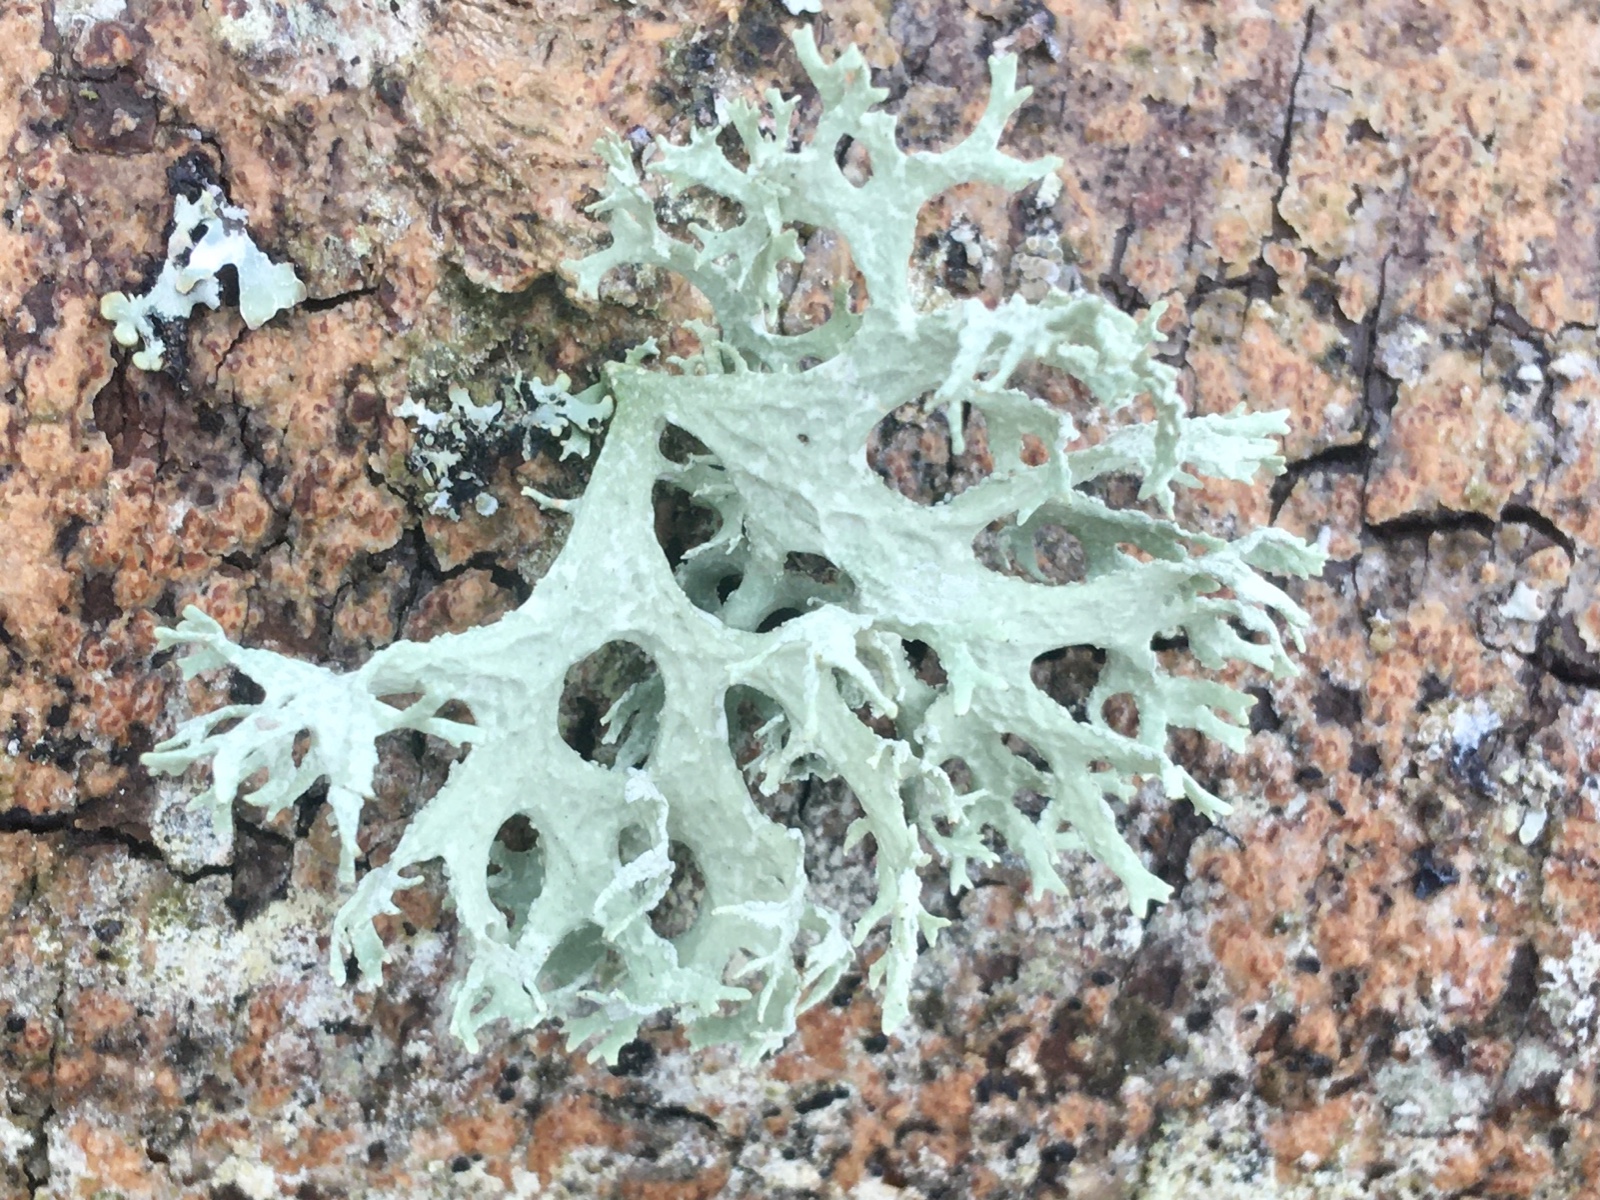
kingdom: Fungi
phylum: Ascomycota
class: Lecanoromycetes
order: Lecanorales
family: Parmeliaceae
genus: Evernia
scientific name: Evernia prunastri
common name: almindelig slåenlav
